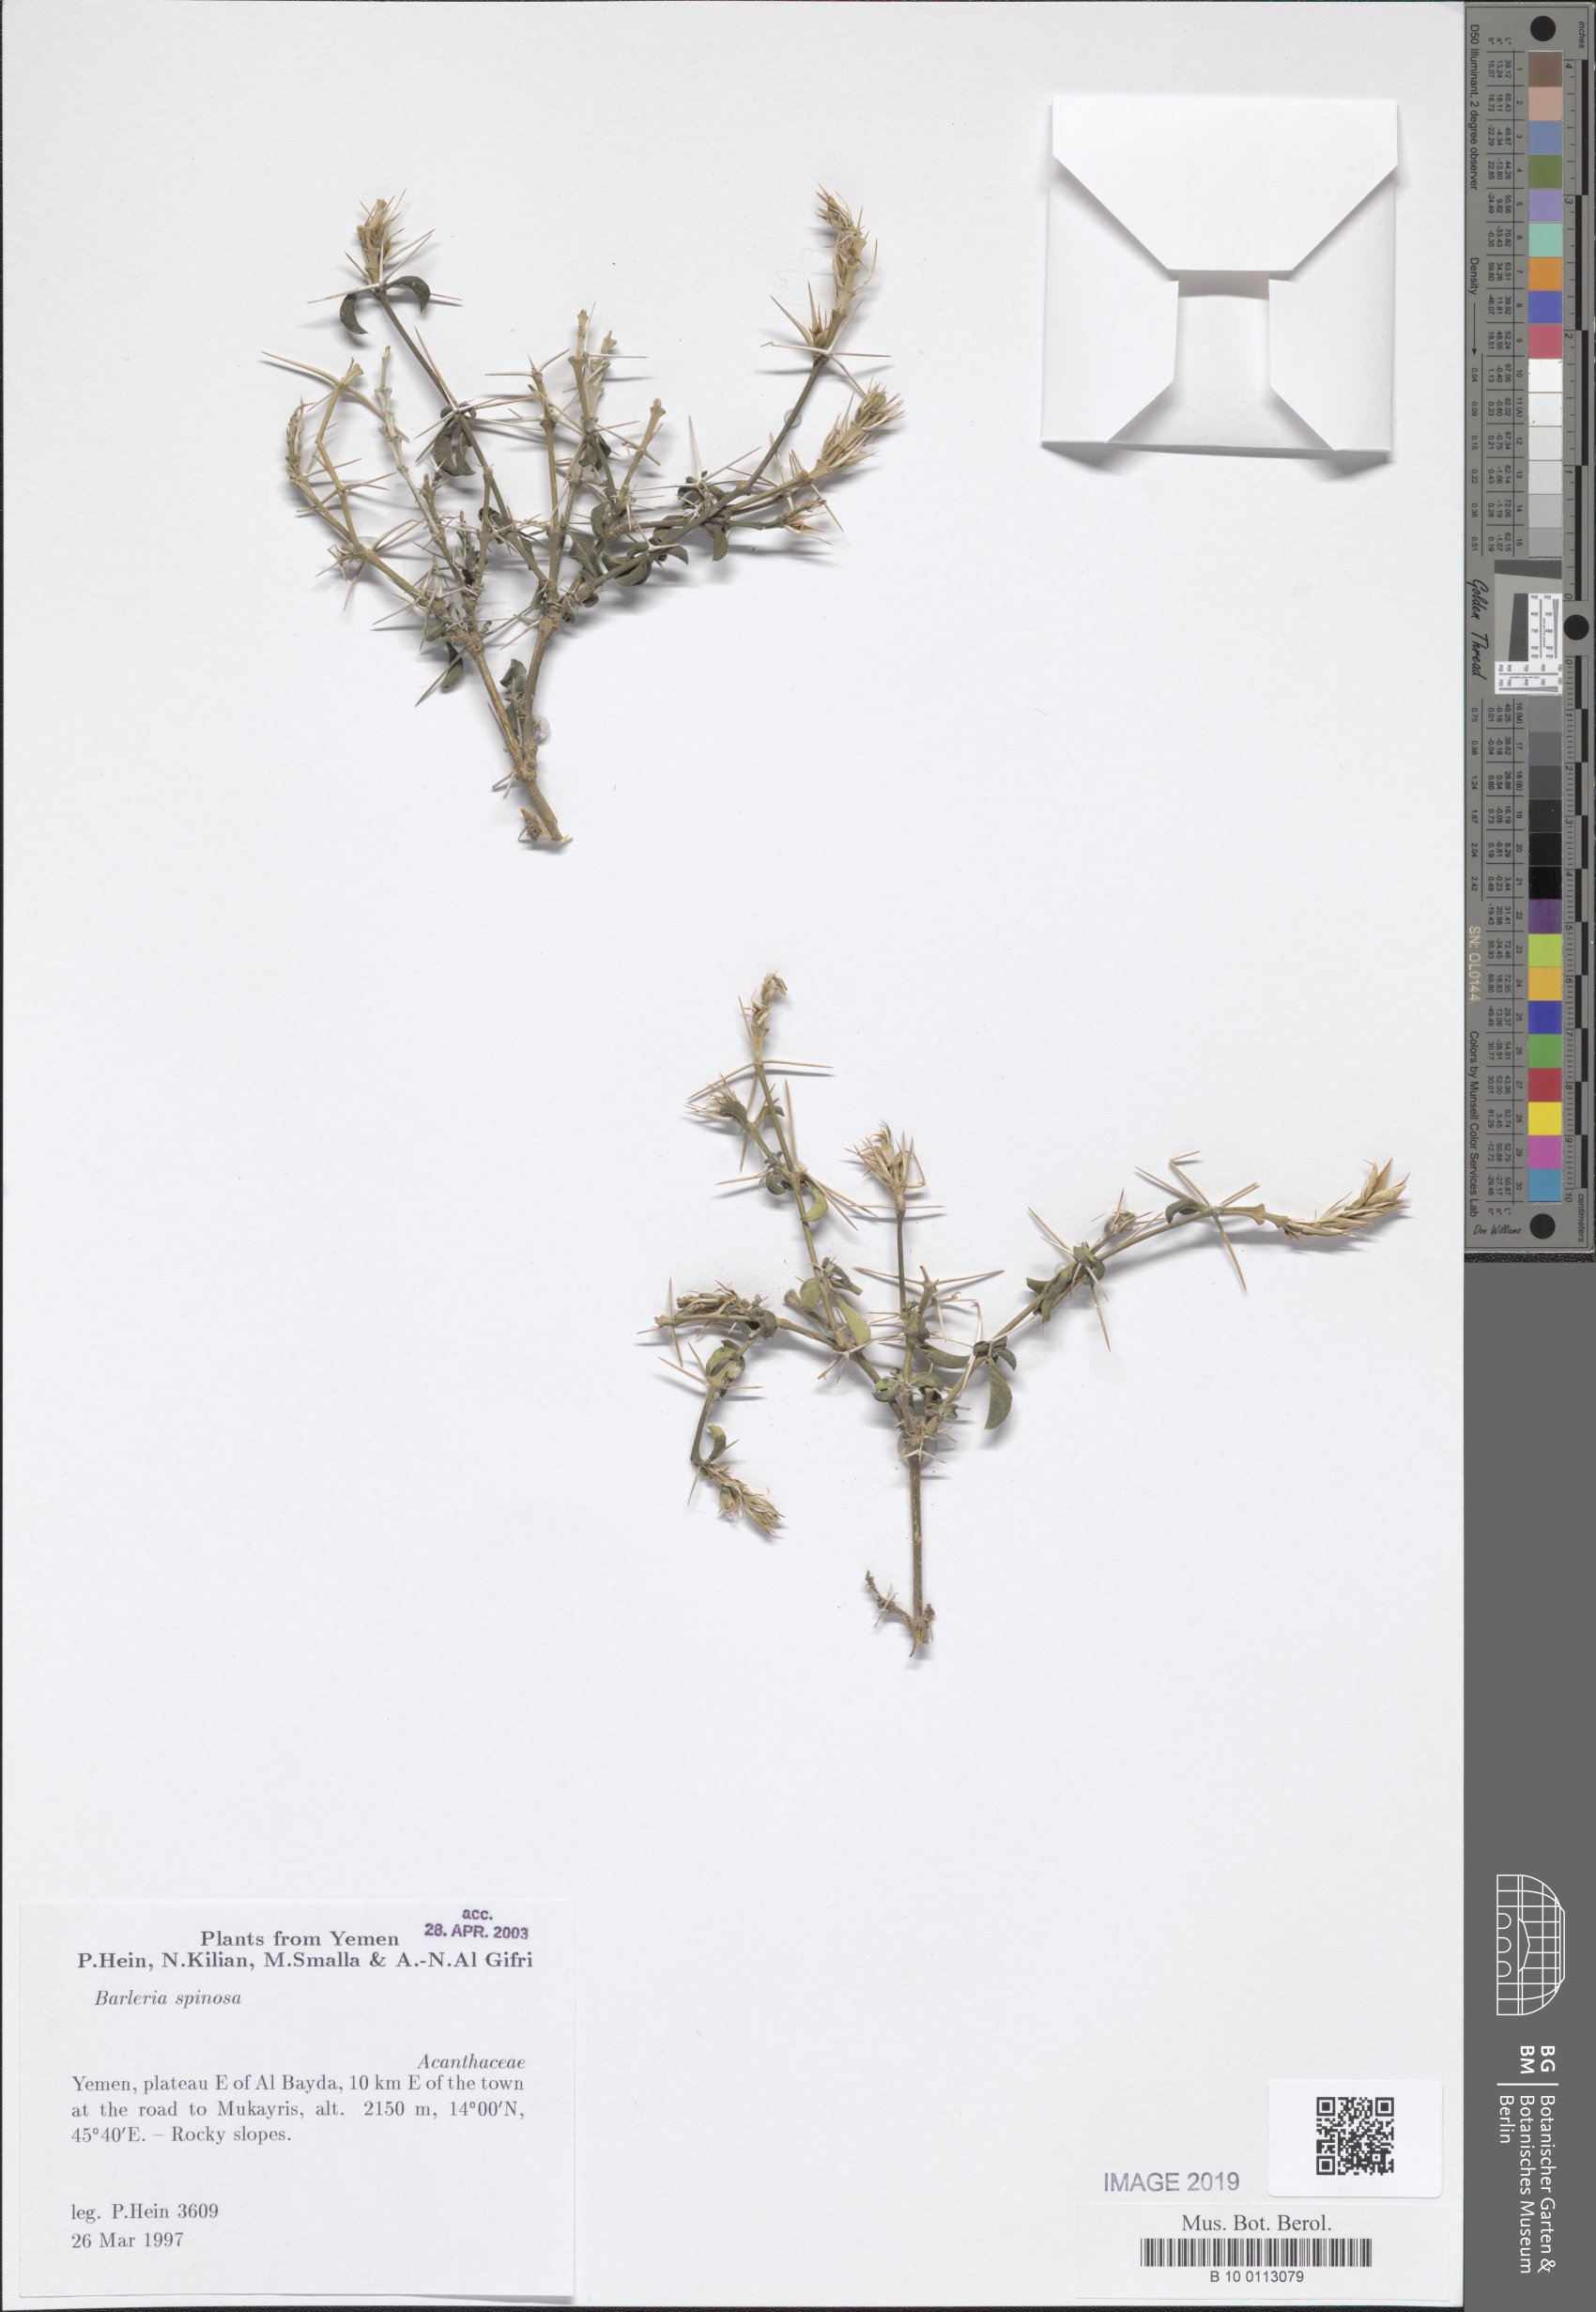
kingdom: Plantae
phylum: Tracheophyta
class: Magnoliopsida
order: Lamiales
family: Acanthaceae
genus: Barleria
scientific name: Barleria
